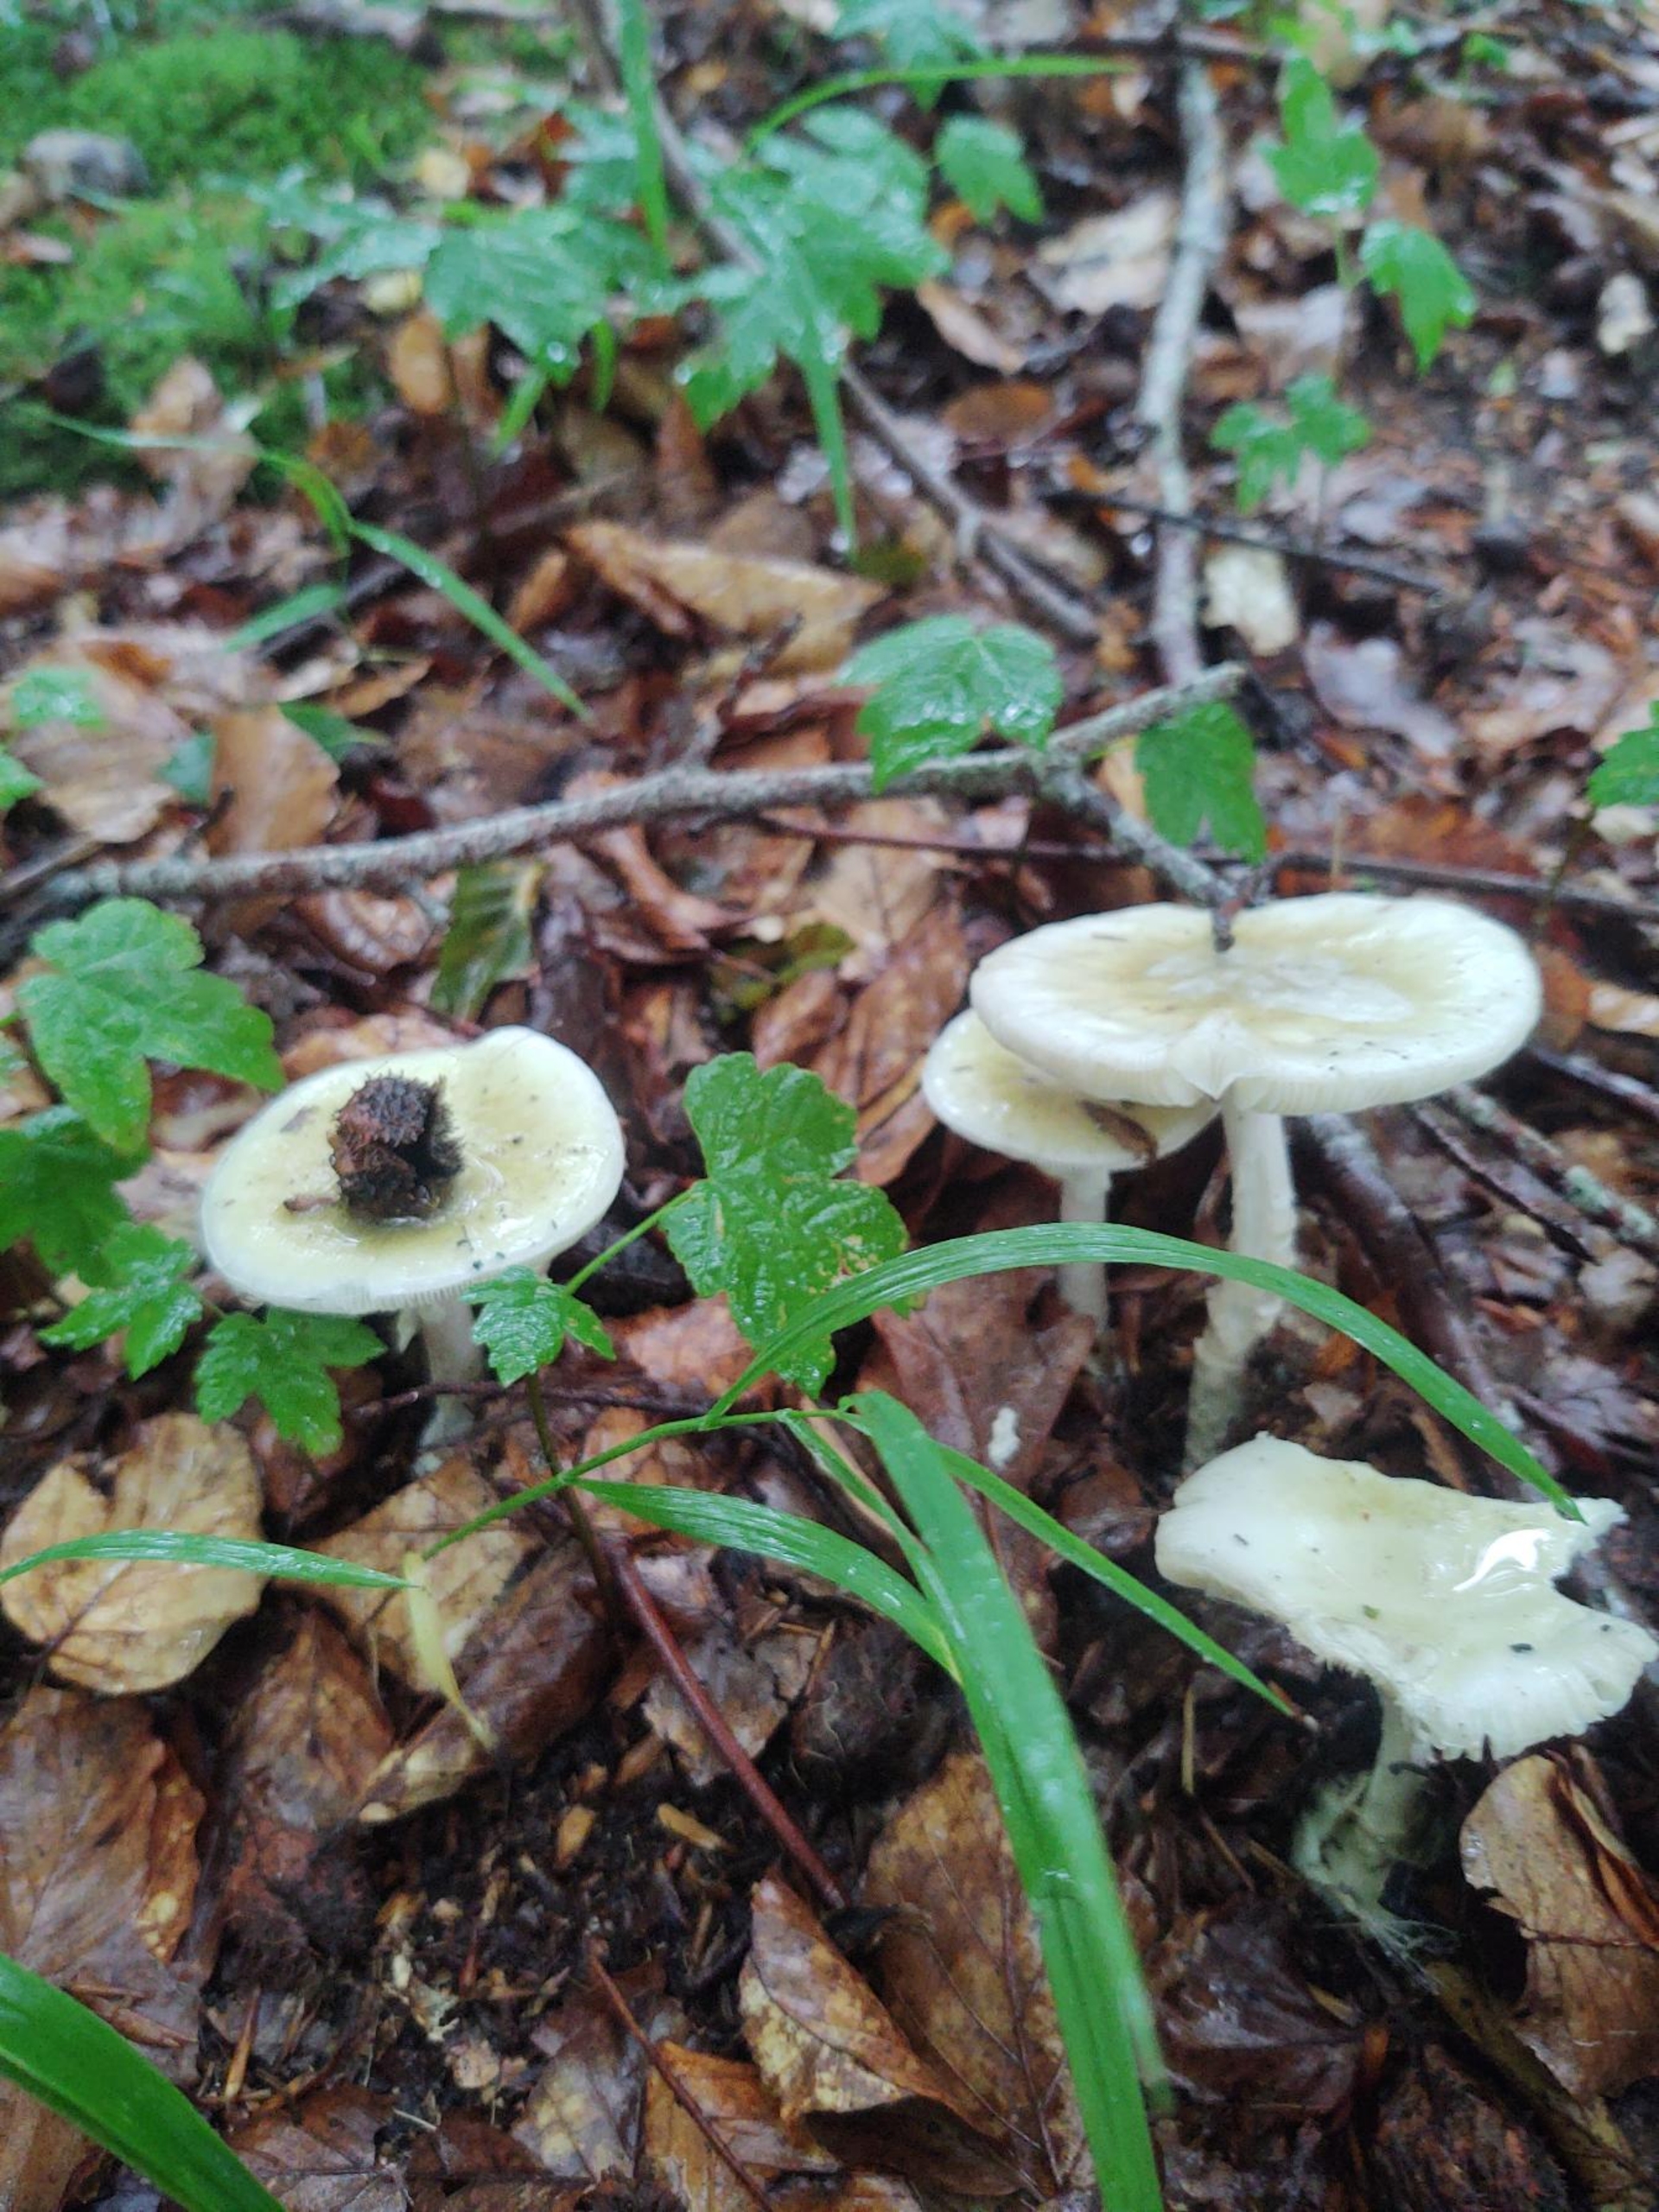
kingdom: Fungi
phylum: Basidiomycota
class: Agaricomycetes
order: Agaricales
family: Amanitaceae
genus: Amanita
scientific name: Amanita phalloides
